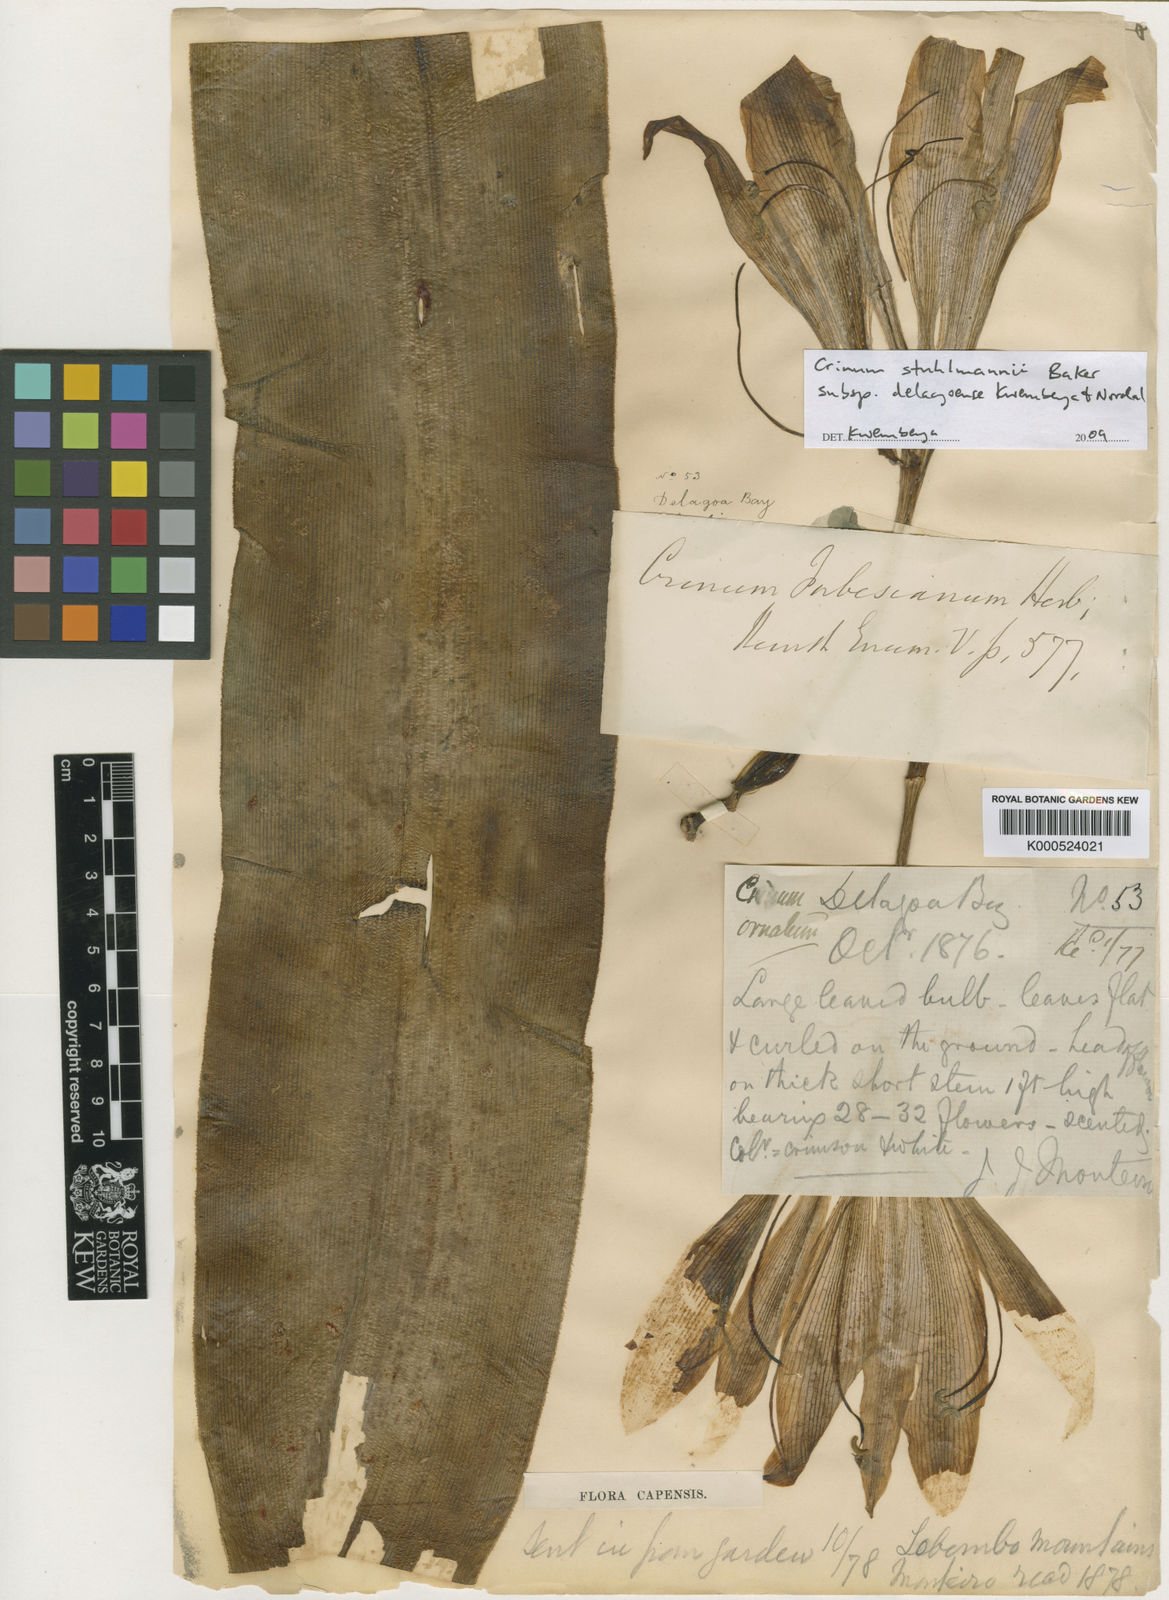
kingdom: Plantae
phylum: Tracheophyta
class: Liliopsida
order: Asparagales
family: Amaryllidaceae
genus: Crinum
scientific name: Crinum stuhlmannii
